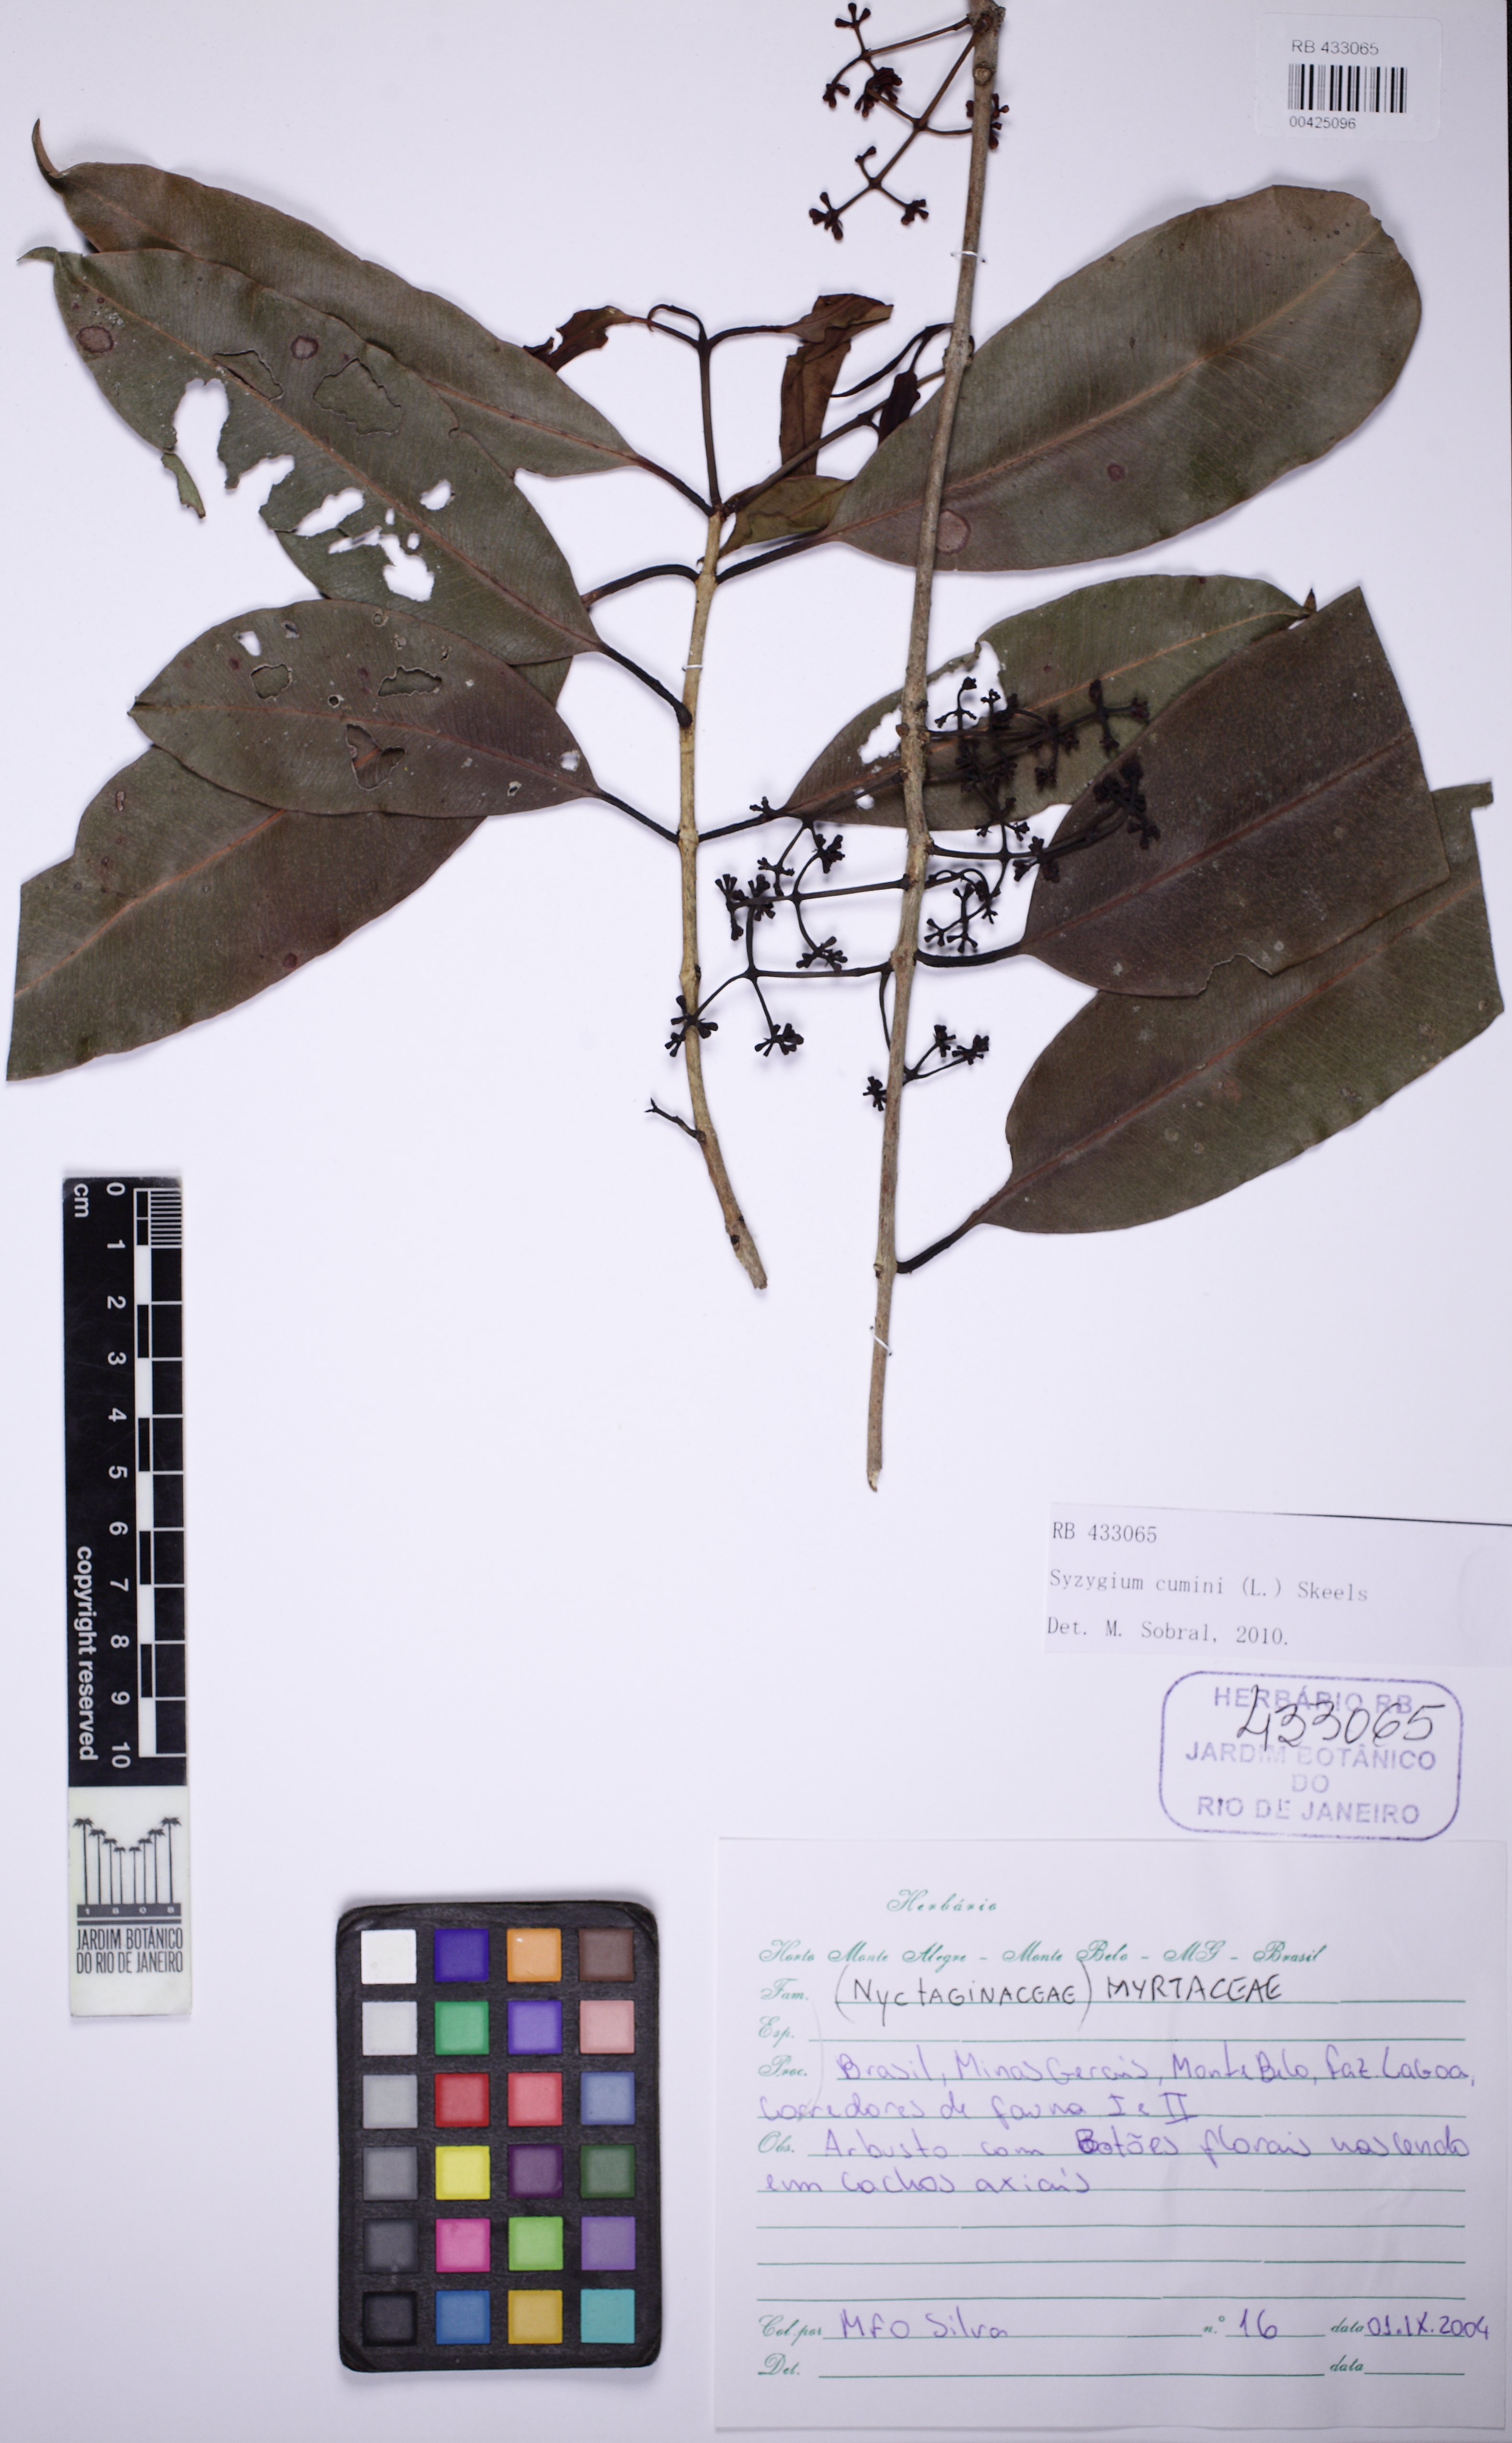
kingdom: Plantae
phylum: Tracheophyta
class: Magnoliopsida
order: Myrtales
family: Myrtaceae
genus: Syzygium
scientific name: Syzygium cumini
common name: Java plum
